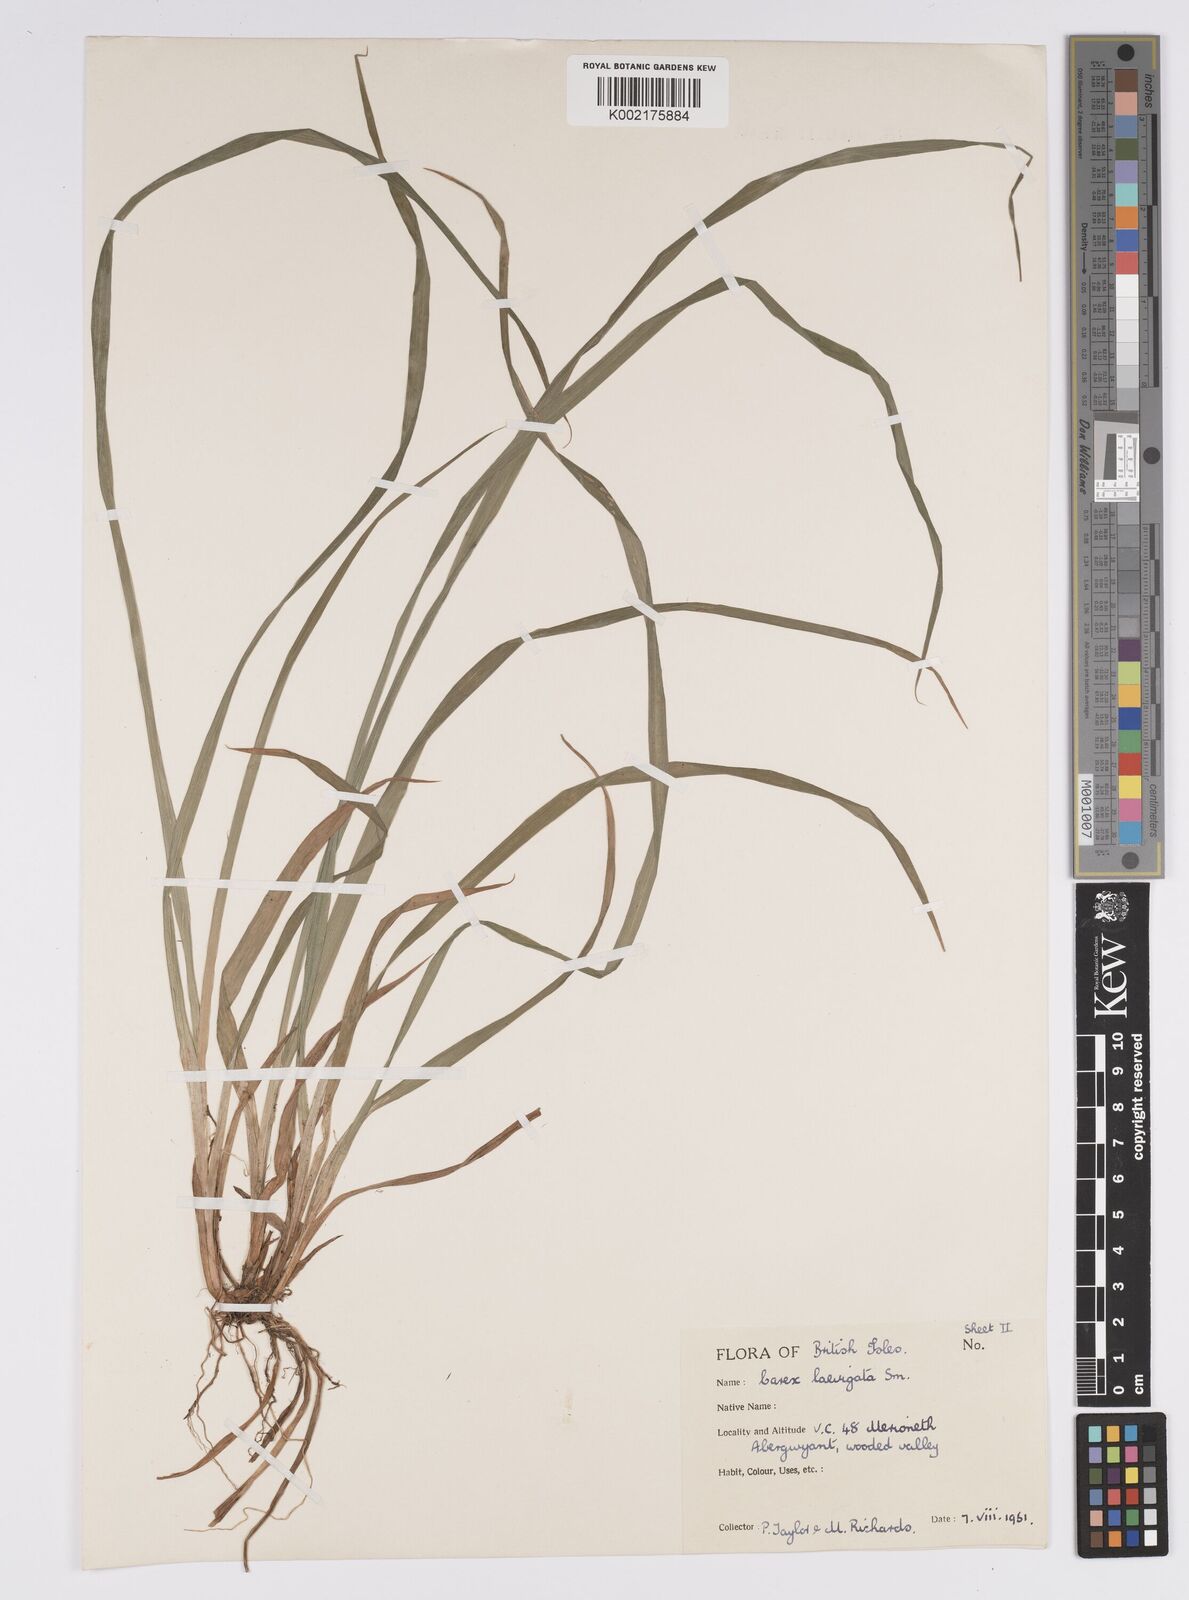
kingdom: Plantae
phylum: Tracheophyta
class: Liliopsida
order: Poales
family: Cyperaceae
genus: Carex
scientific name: Carex laevigata
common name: Smooth-stalked sedge
